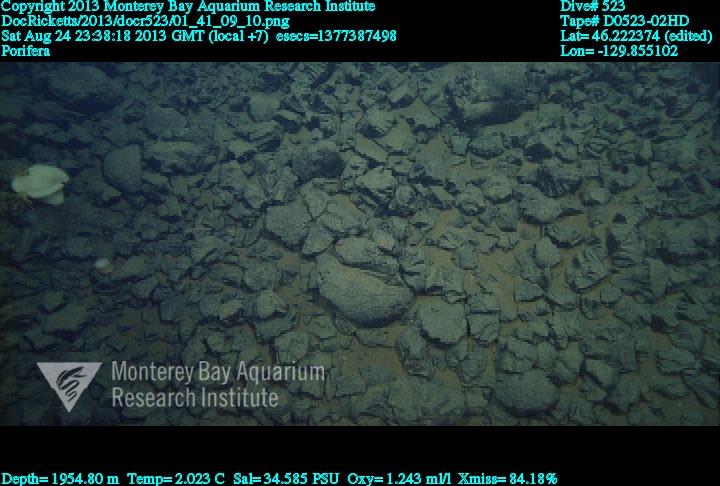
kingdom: Animalia
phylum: Porifera
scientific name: Porifera
